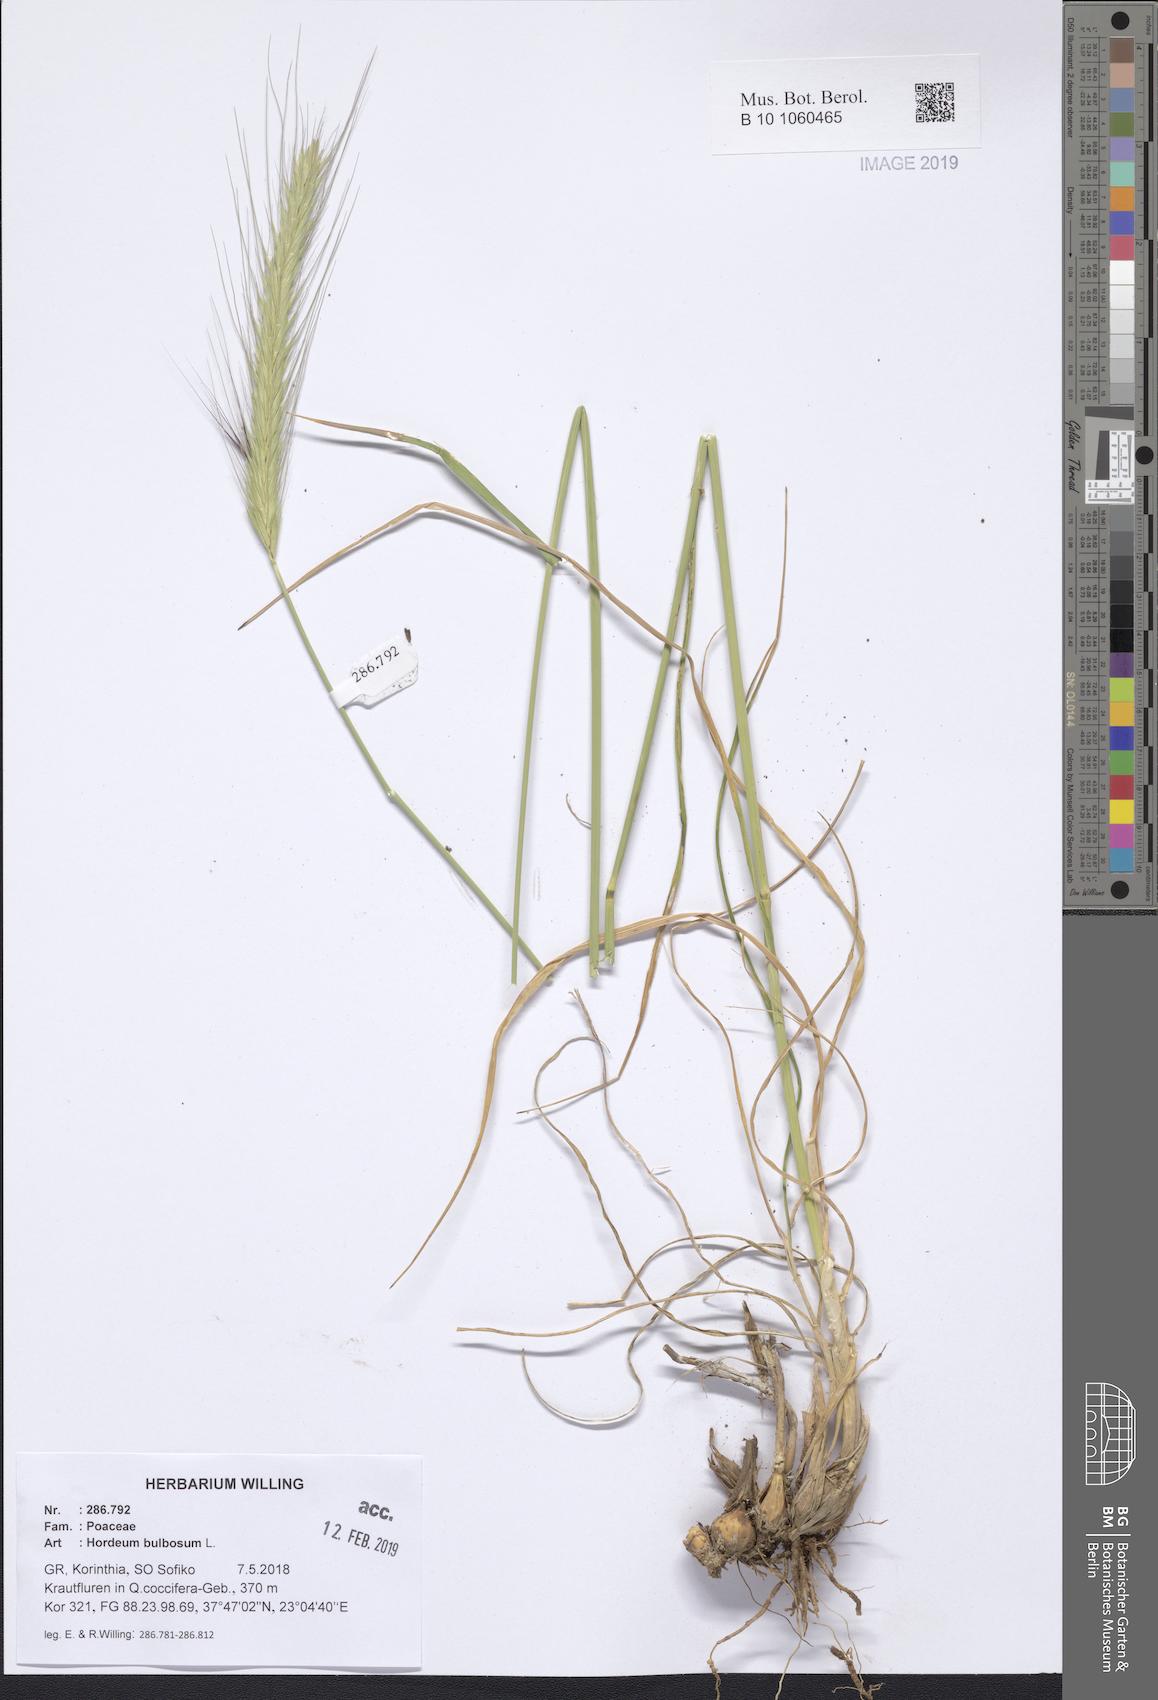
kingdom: Plantae
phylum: Tracheophyta
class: Liliopsida
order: Poales
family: Poaceae
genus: Hordeum
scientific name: Hordeum bulbosum
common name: Bulbous barley
